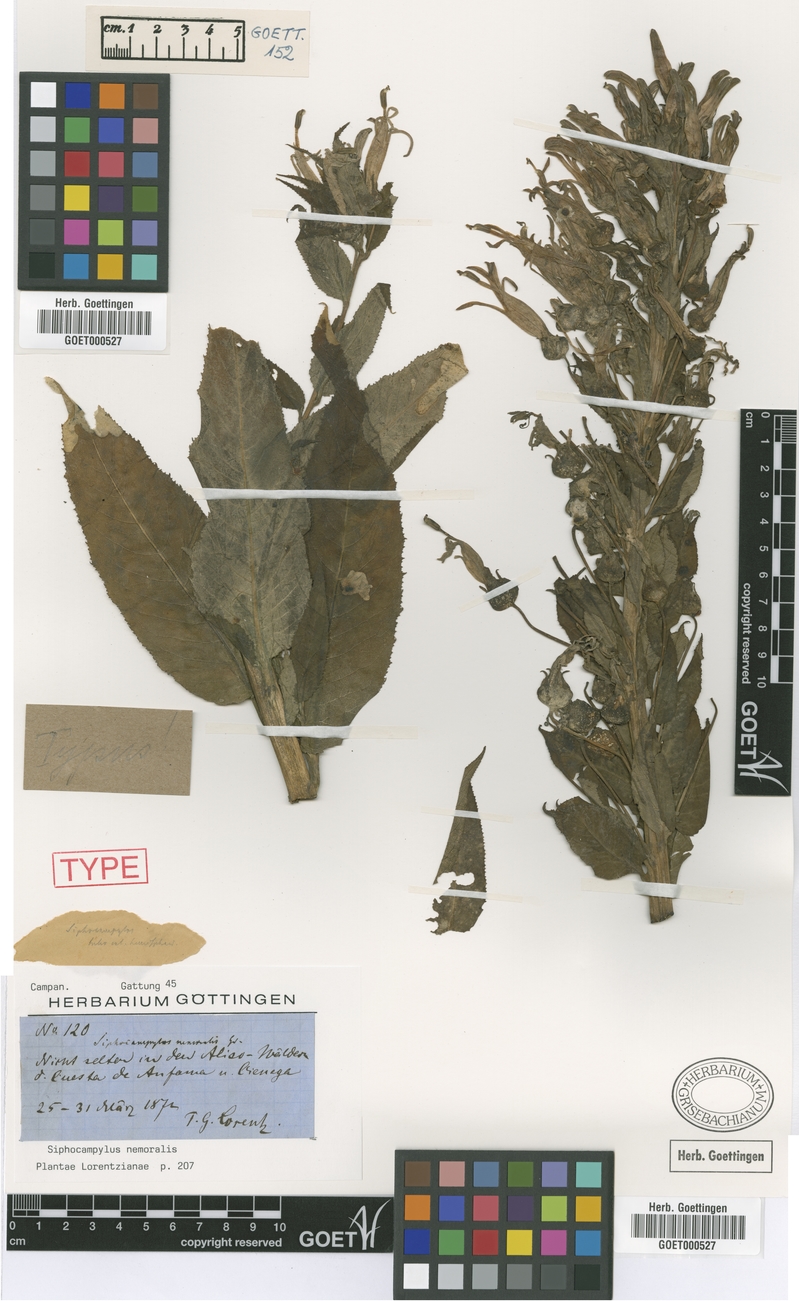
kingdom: Plantae
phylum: Tracheophyta
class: Magnoliopsida
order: Asterales
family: Campanulaceae
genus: Siphocampylus
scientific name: Siphocampylus nemoralis
